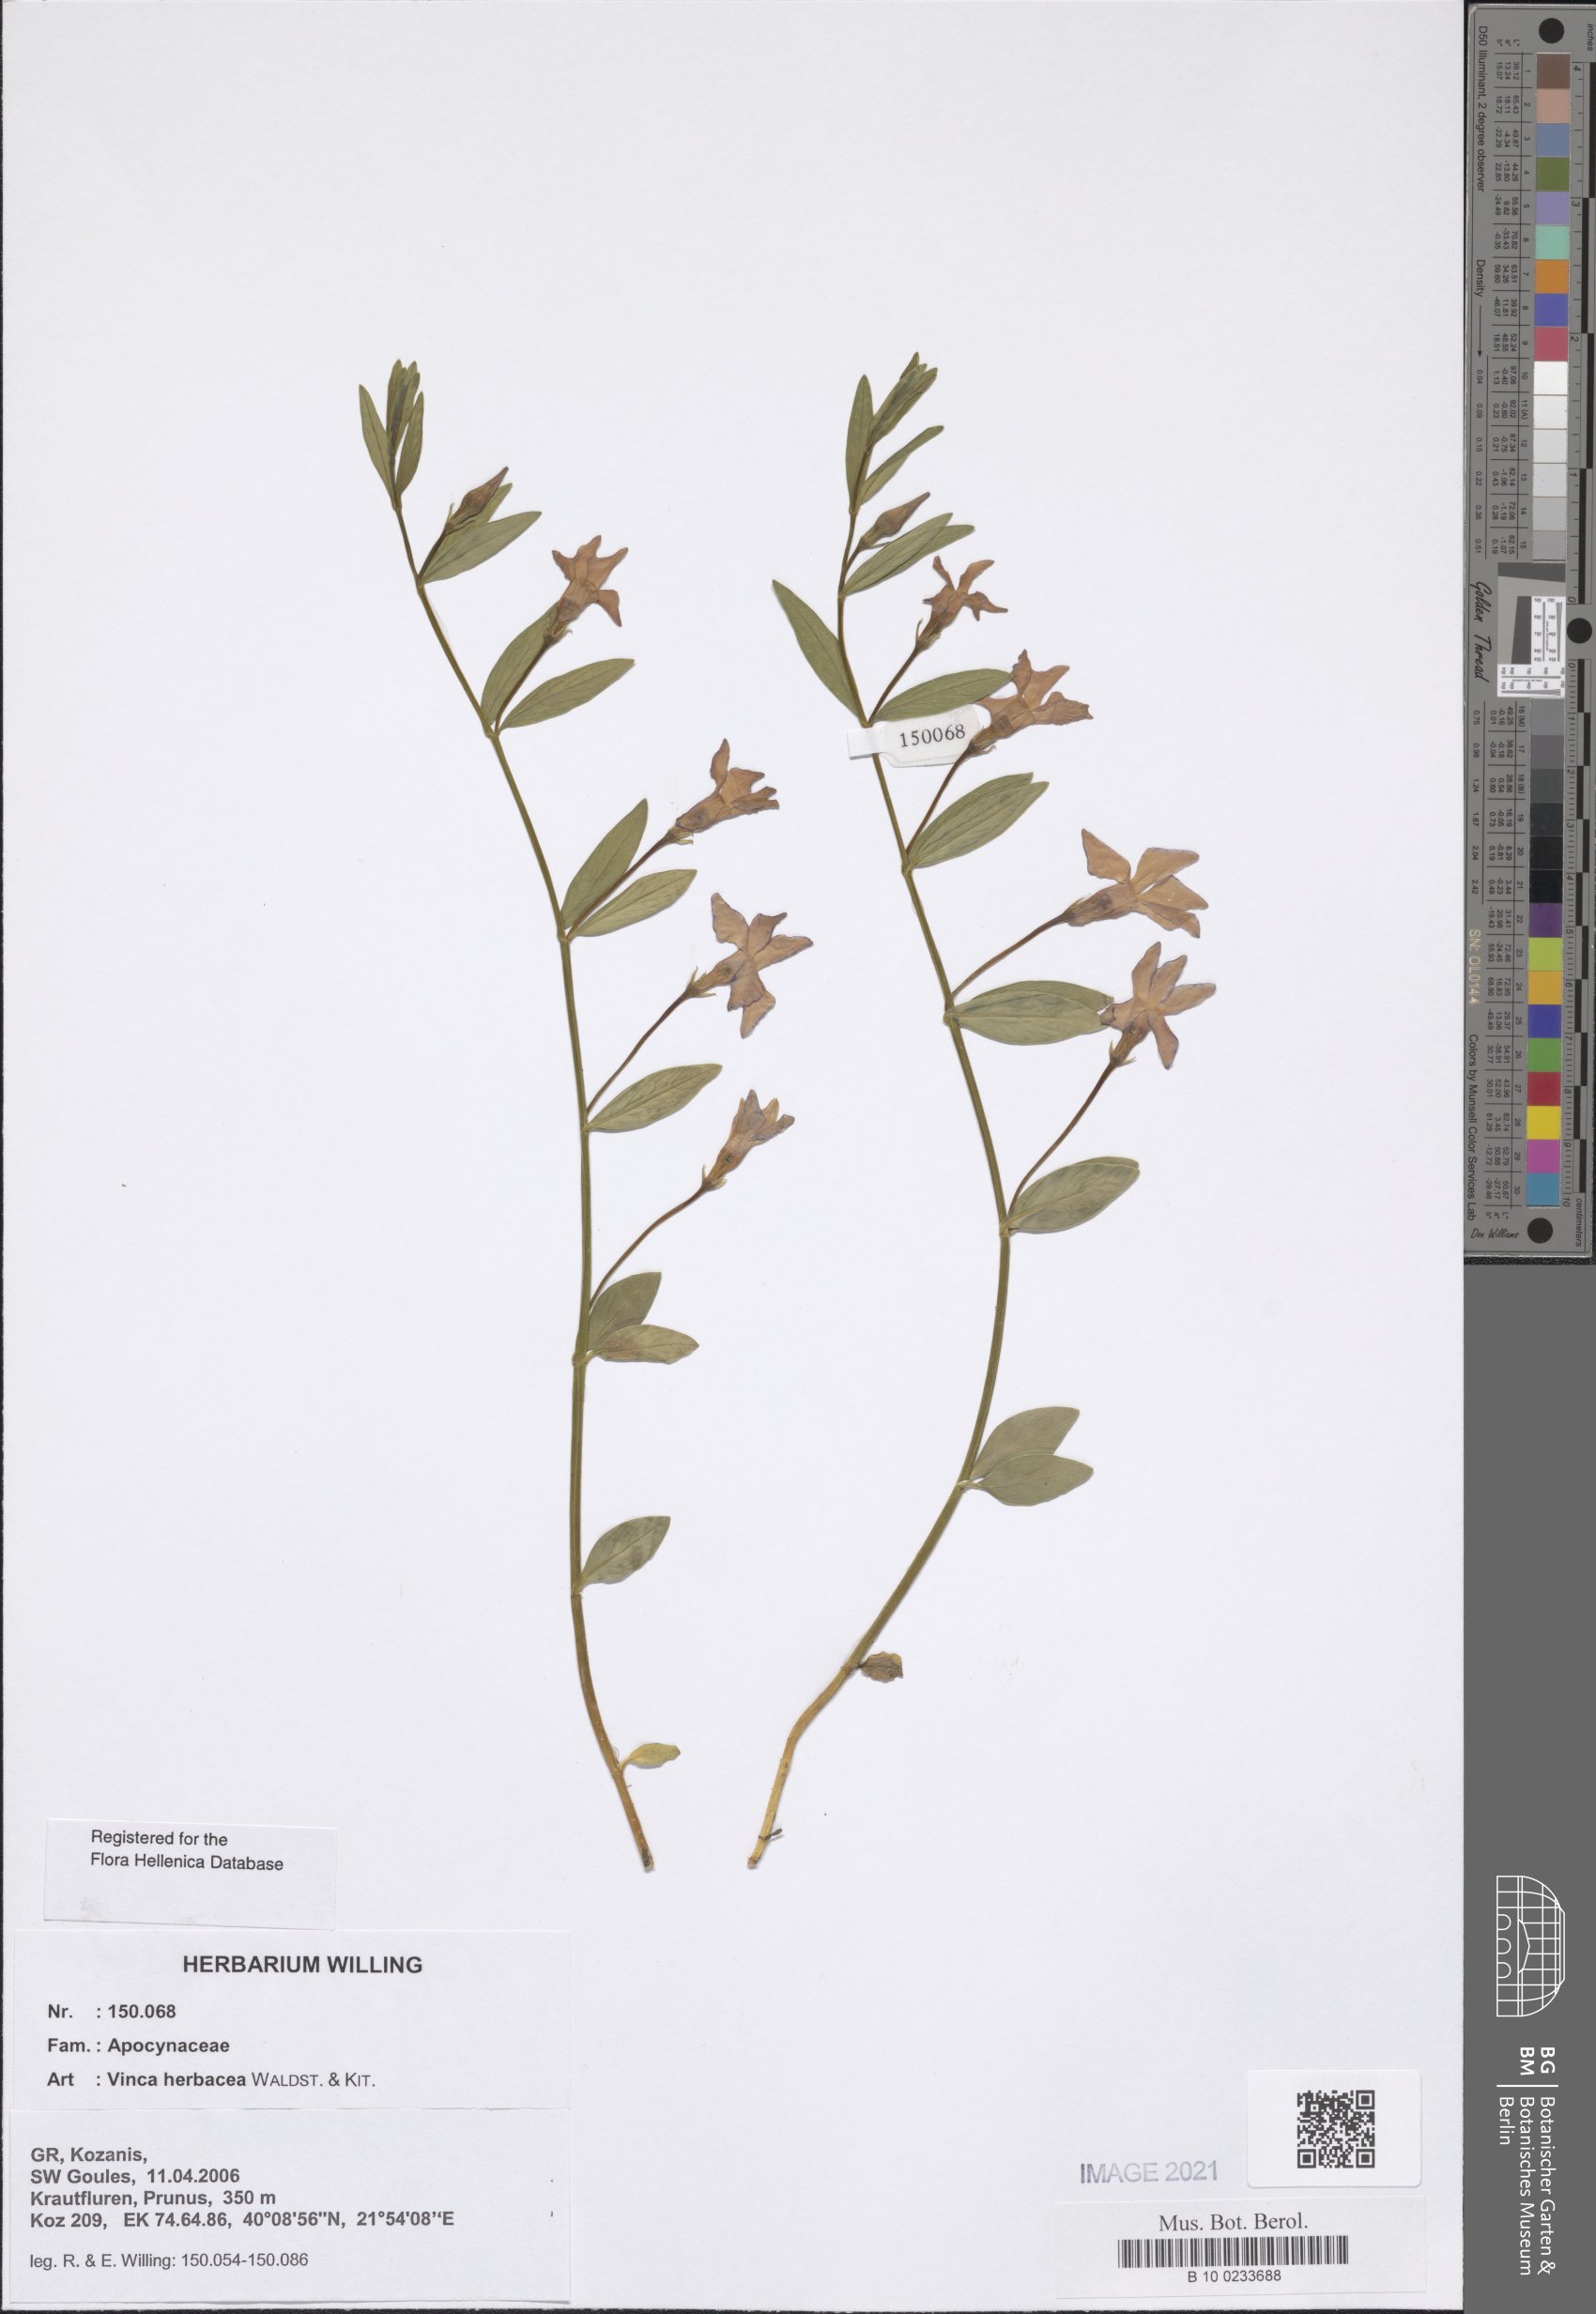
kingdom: Plantae
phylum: Tracheophyta
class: Magnoliopsida
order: Gentianales
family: Apocynaceae
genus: Vinca
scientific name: Vinca herbacea
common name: Herbaceous periwinkle
